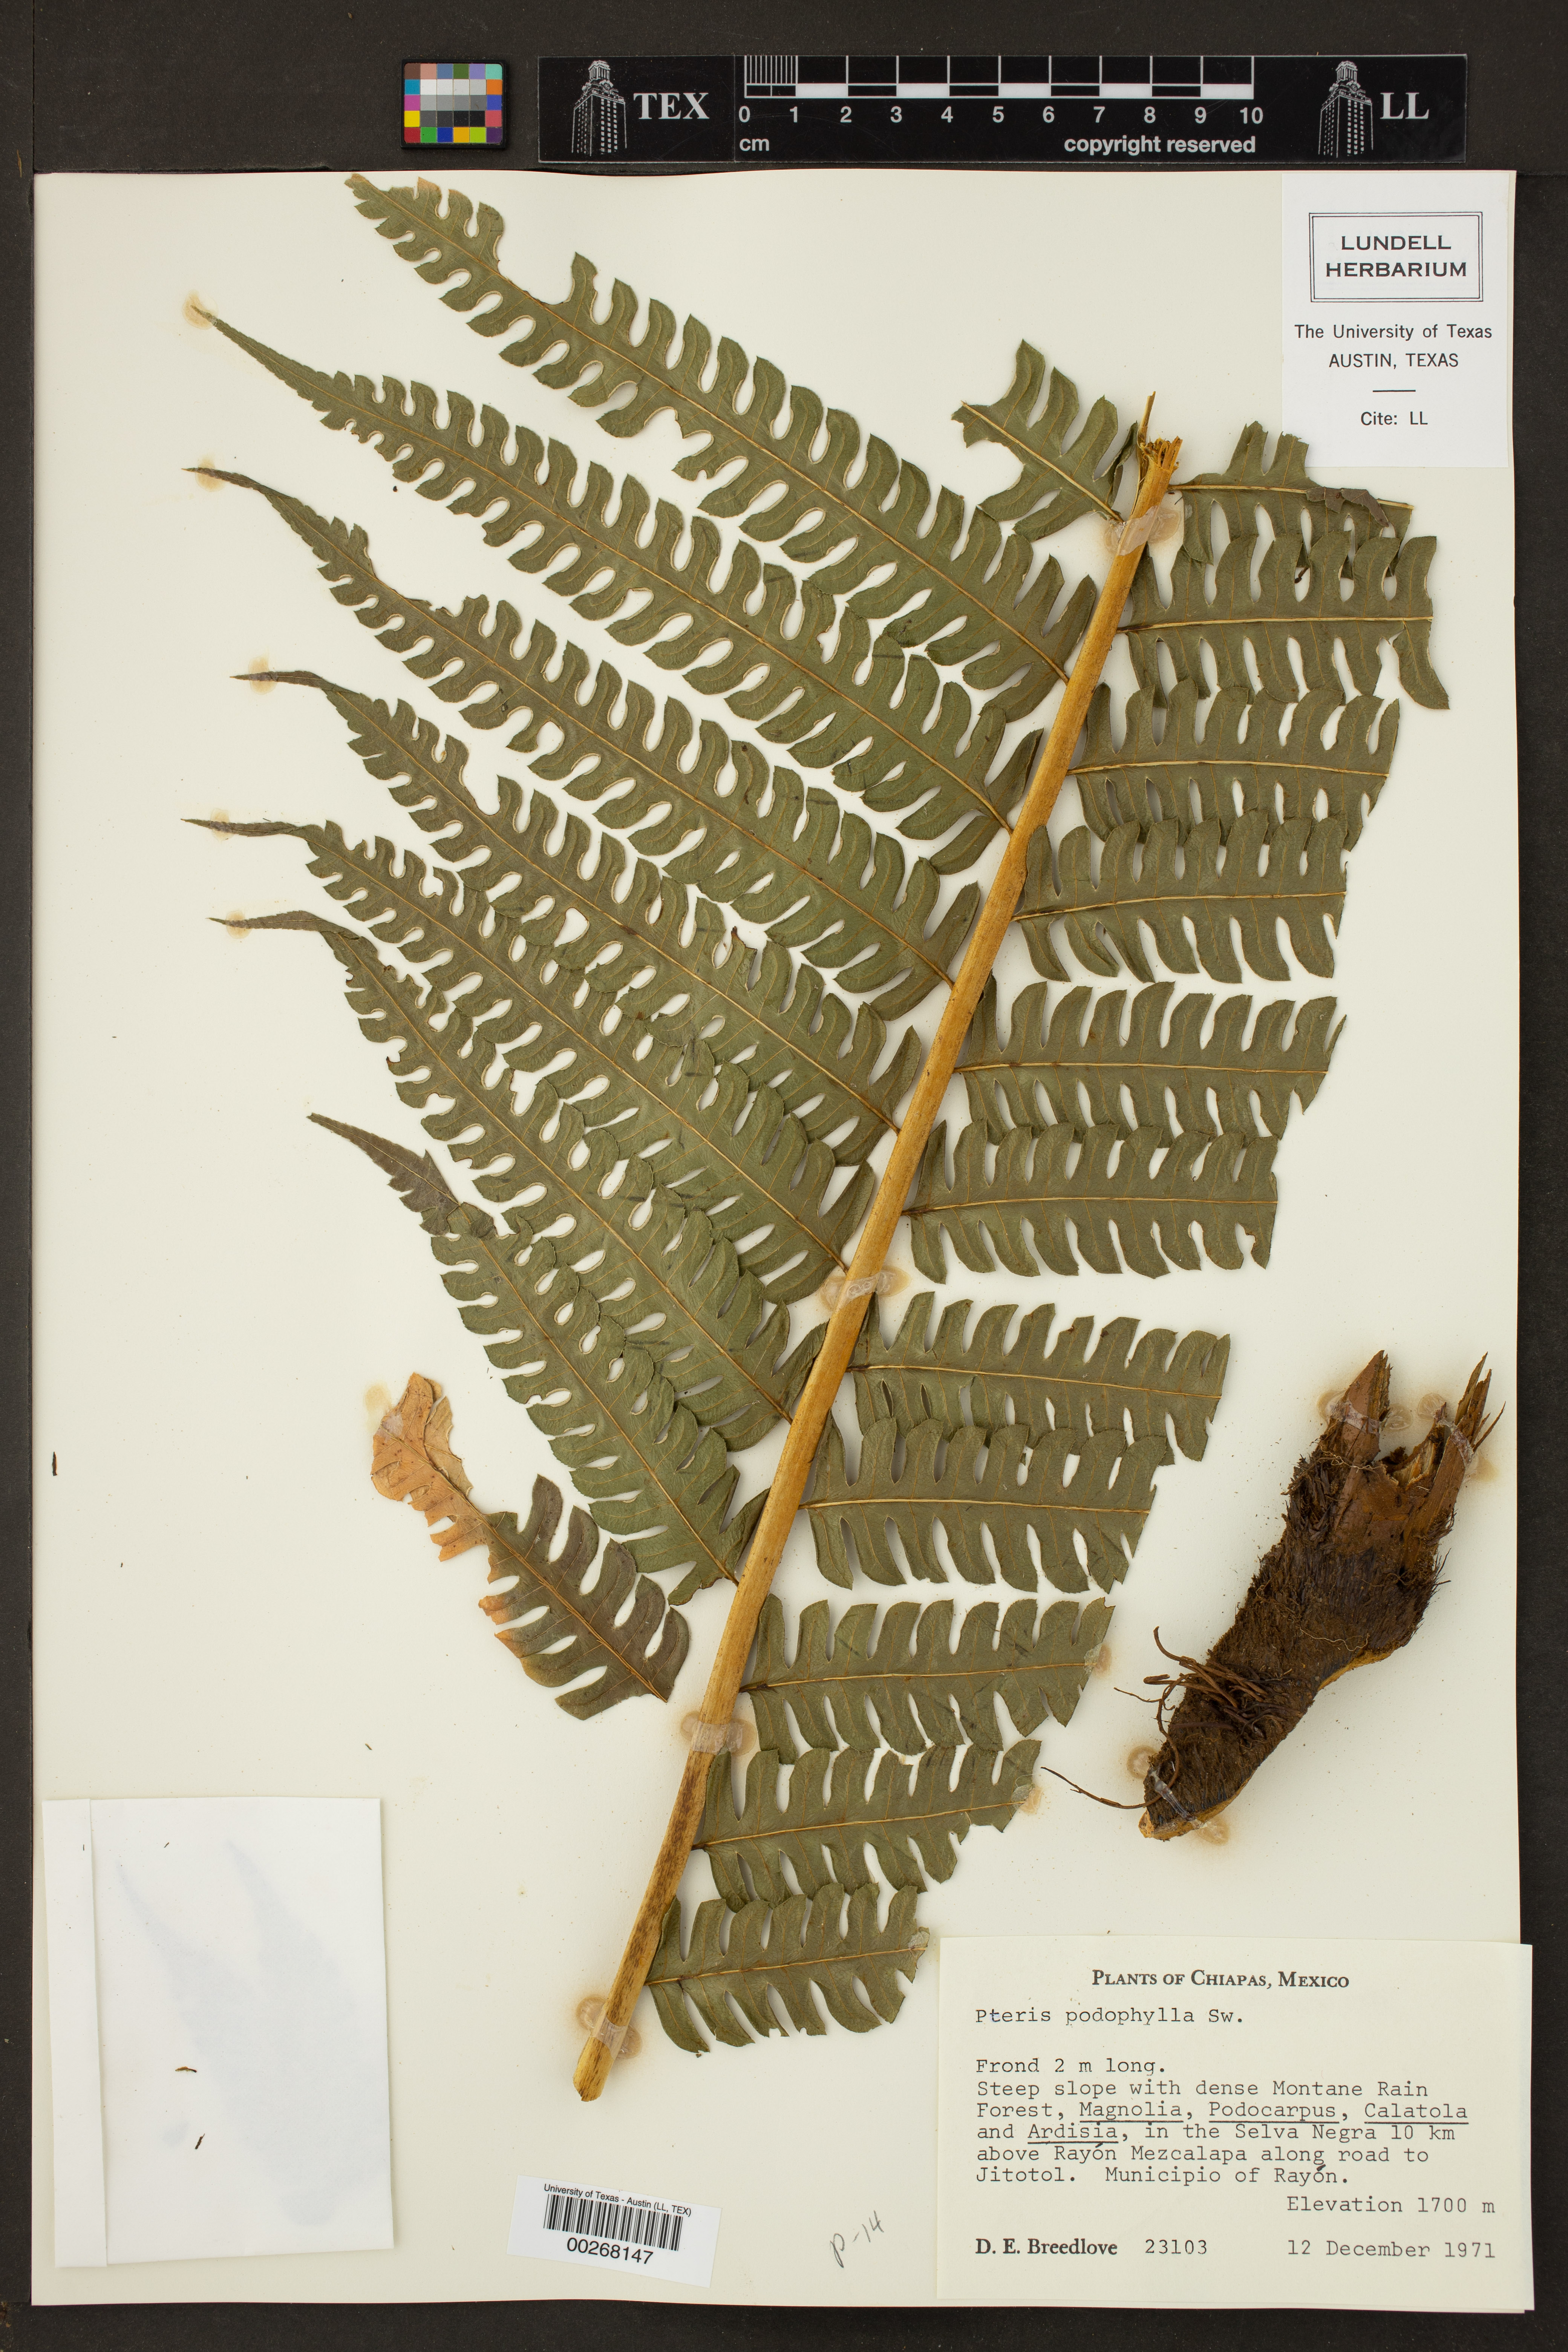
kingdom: Plantae
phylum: Tracheophyta
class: Polypodiopsida
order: Polypodiales
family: Pteridaceae
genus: Pteris
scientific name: Pteris podophylla
